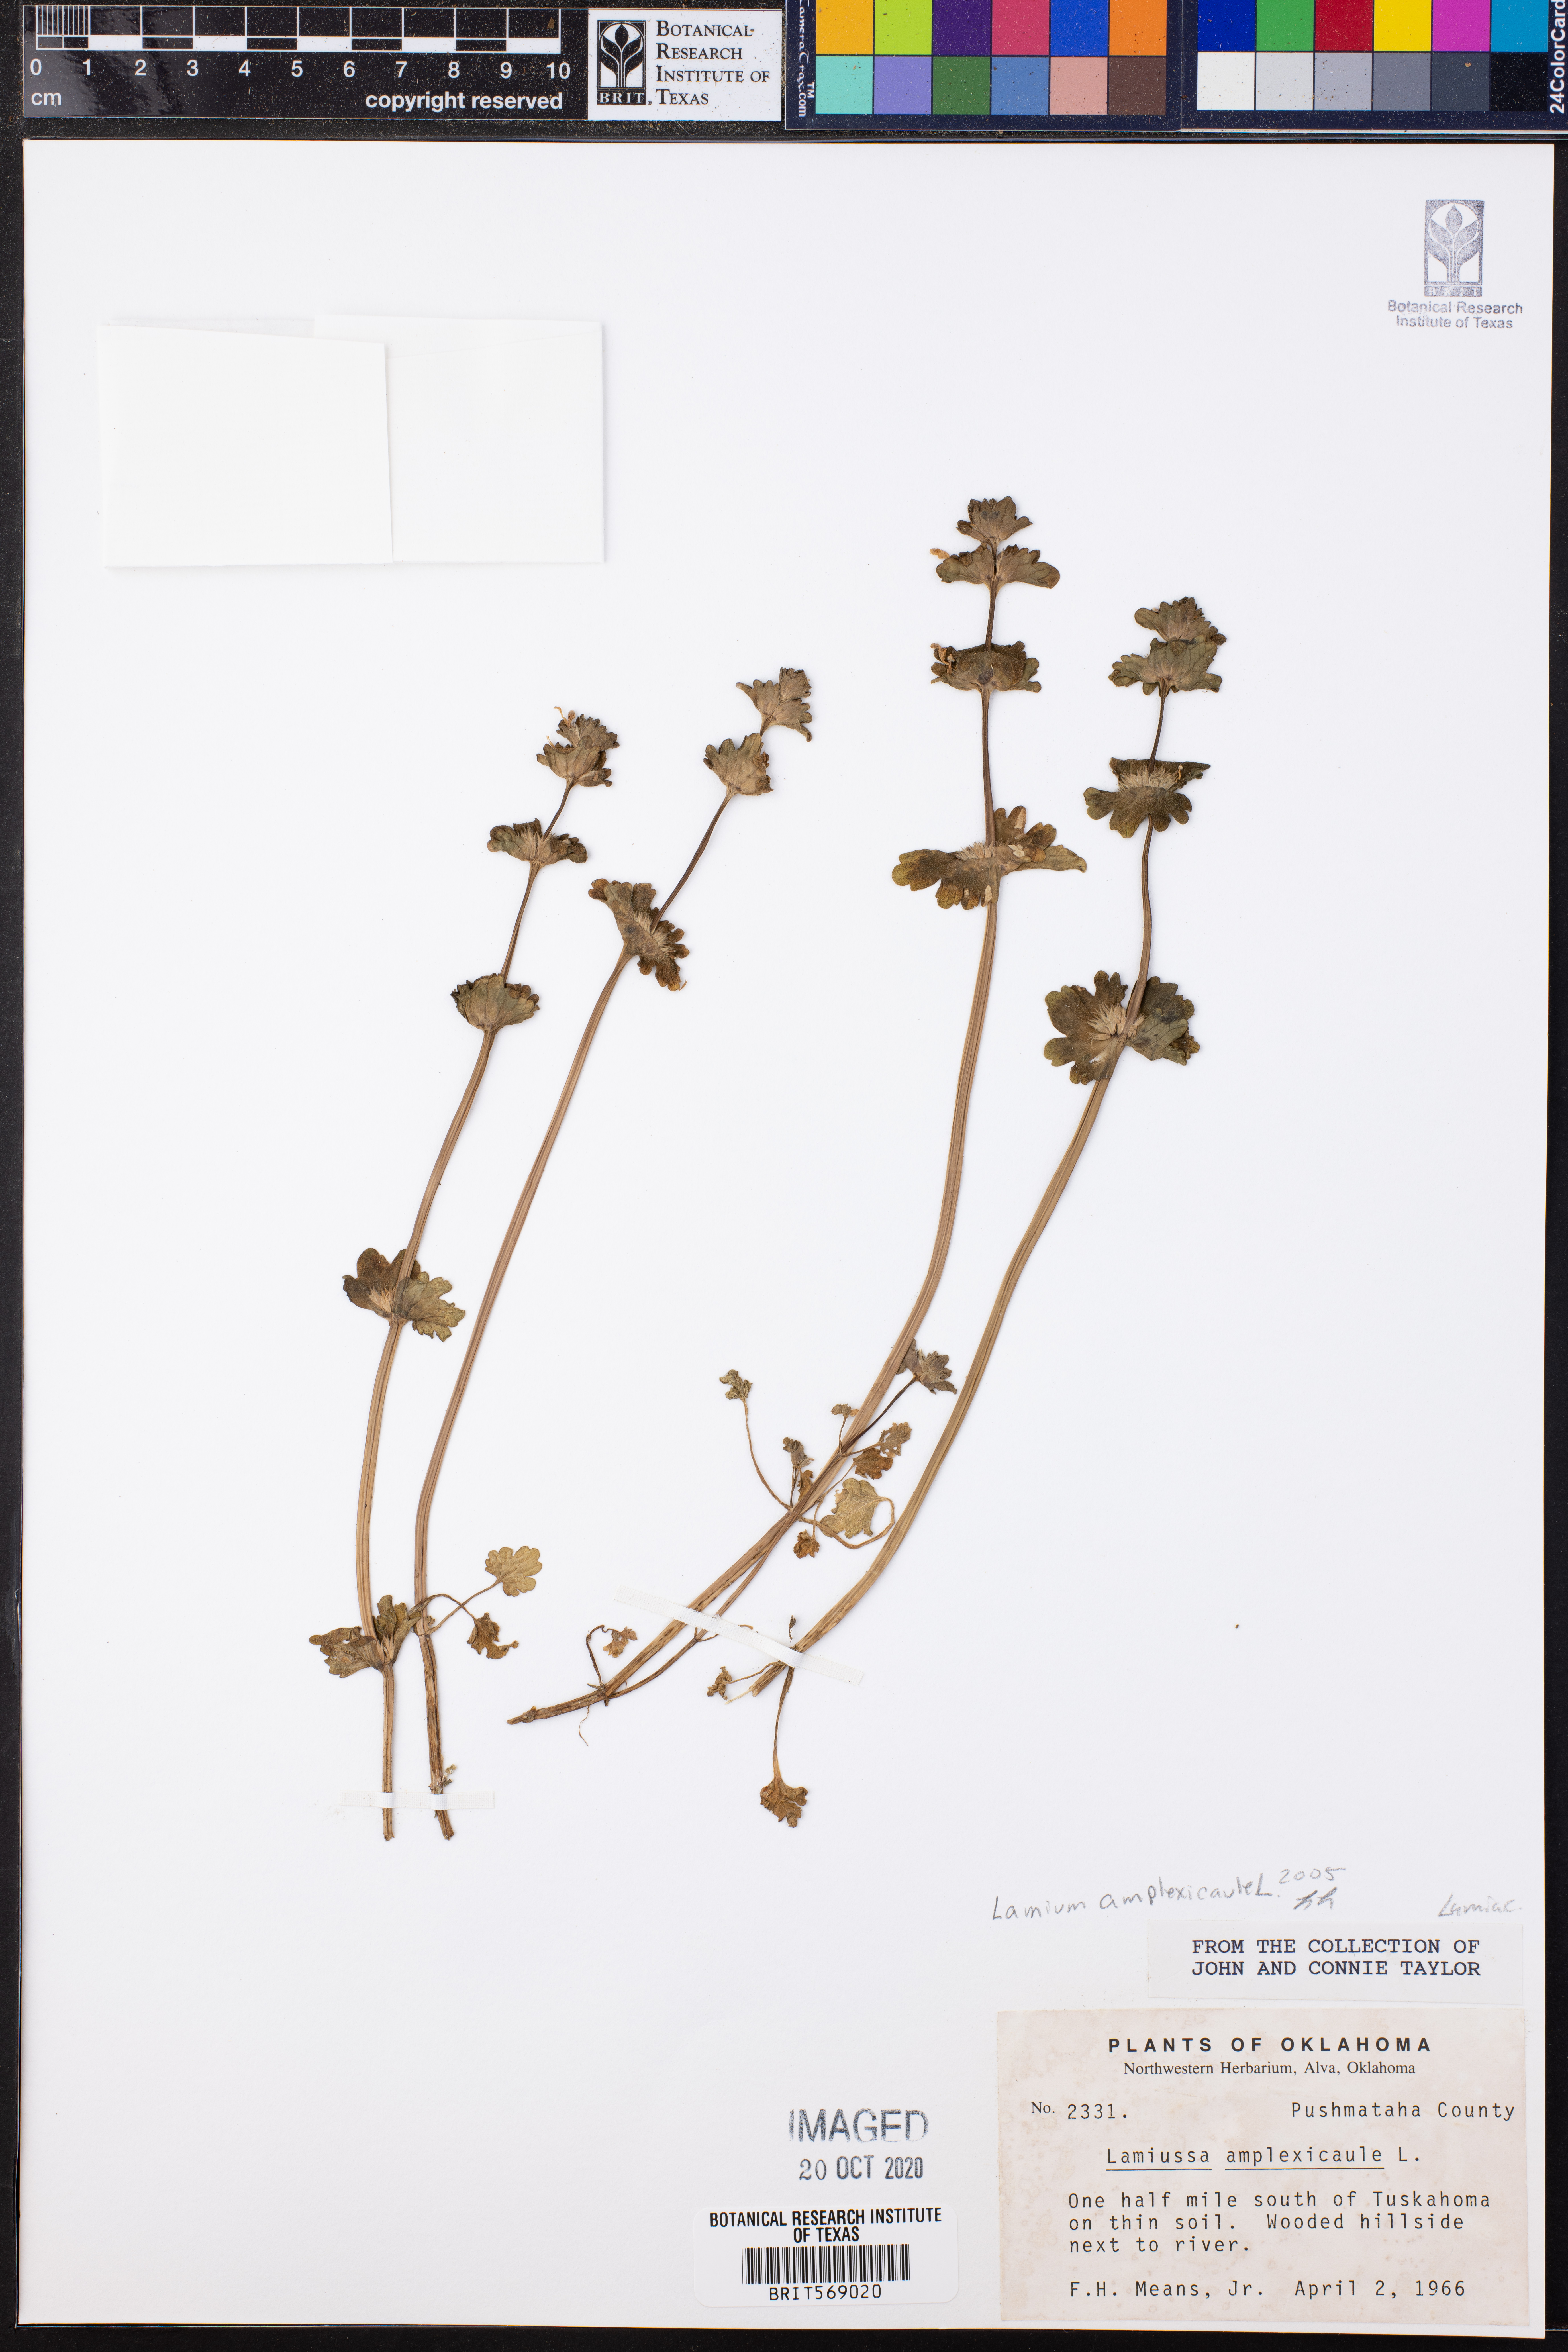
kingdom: Plantae
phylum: Tracheophyta
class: Magnoliopsida
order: Lamiales
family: Lamiaceae
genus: Lamium
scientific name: Lamium amplexicaule
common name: Henbit dead-nettle
